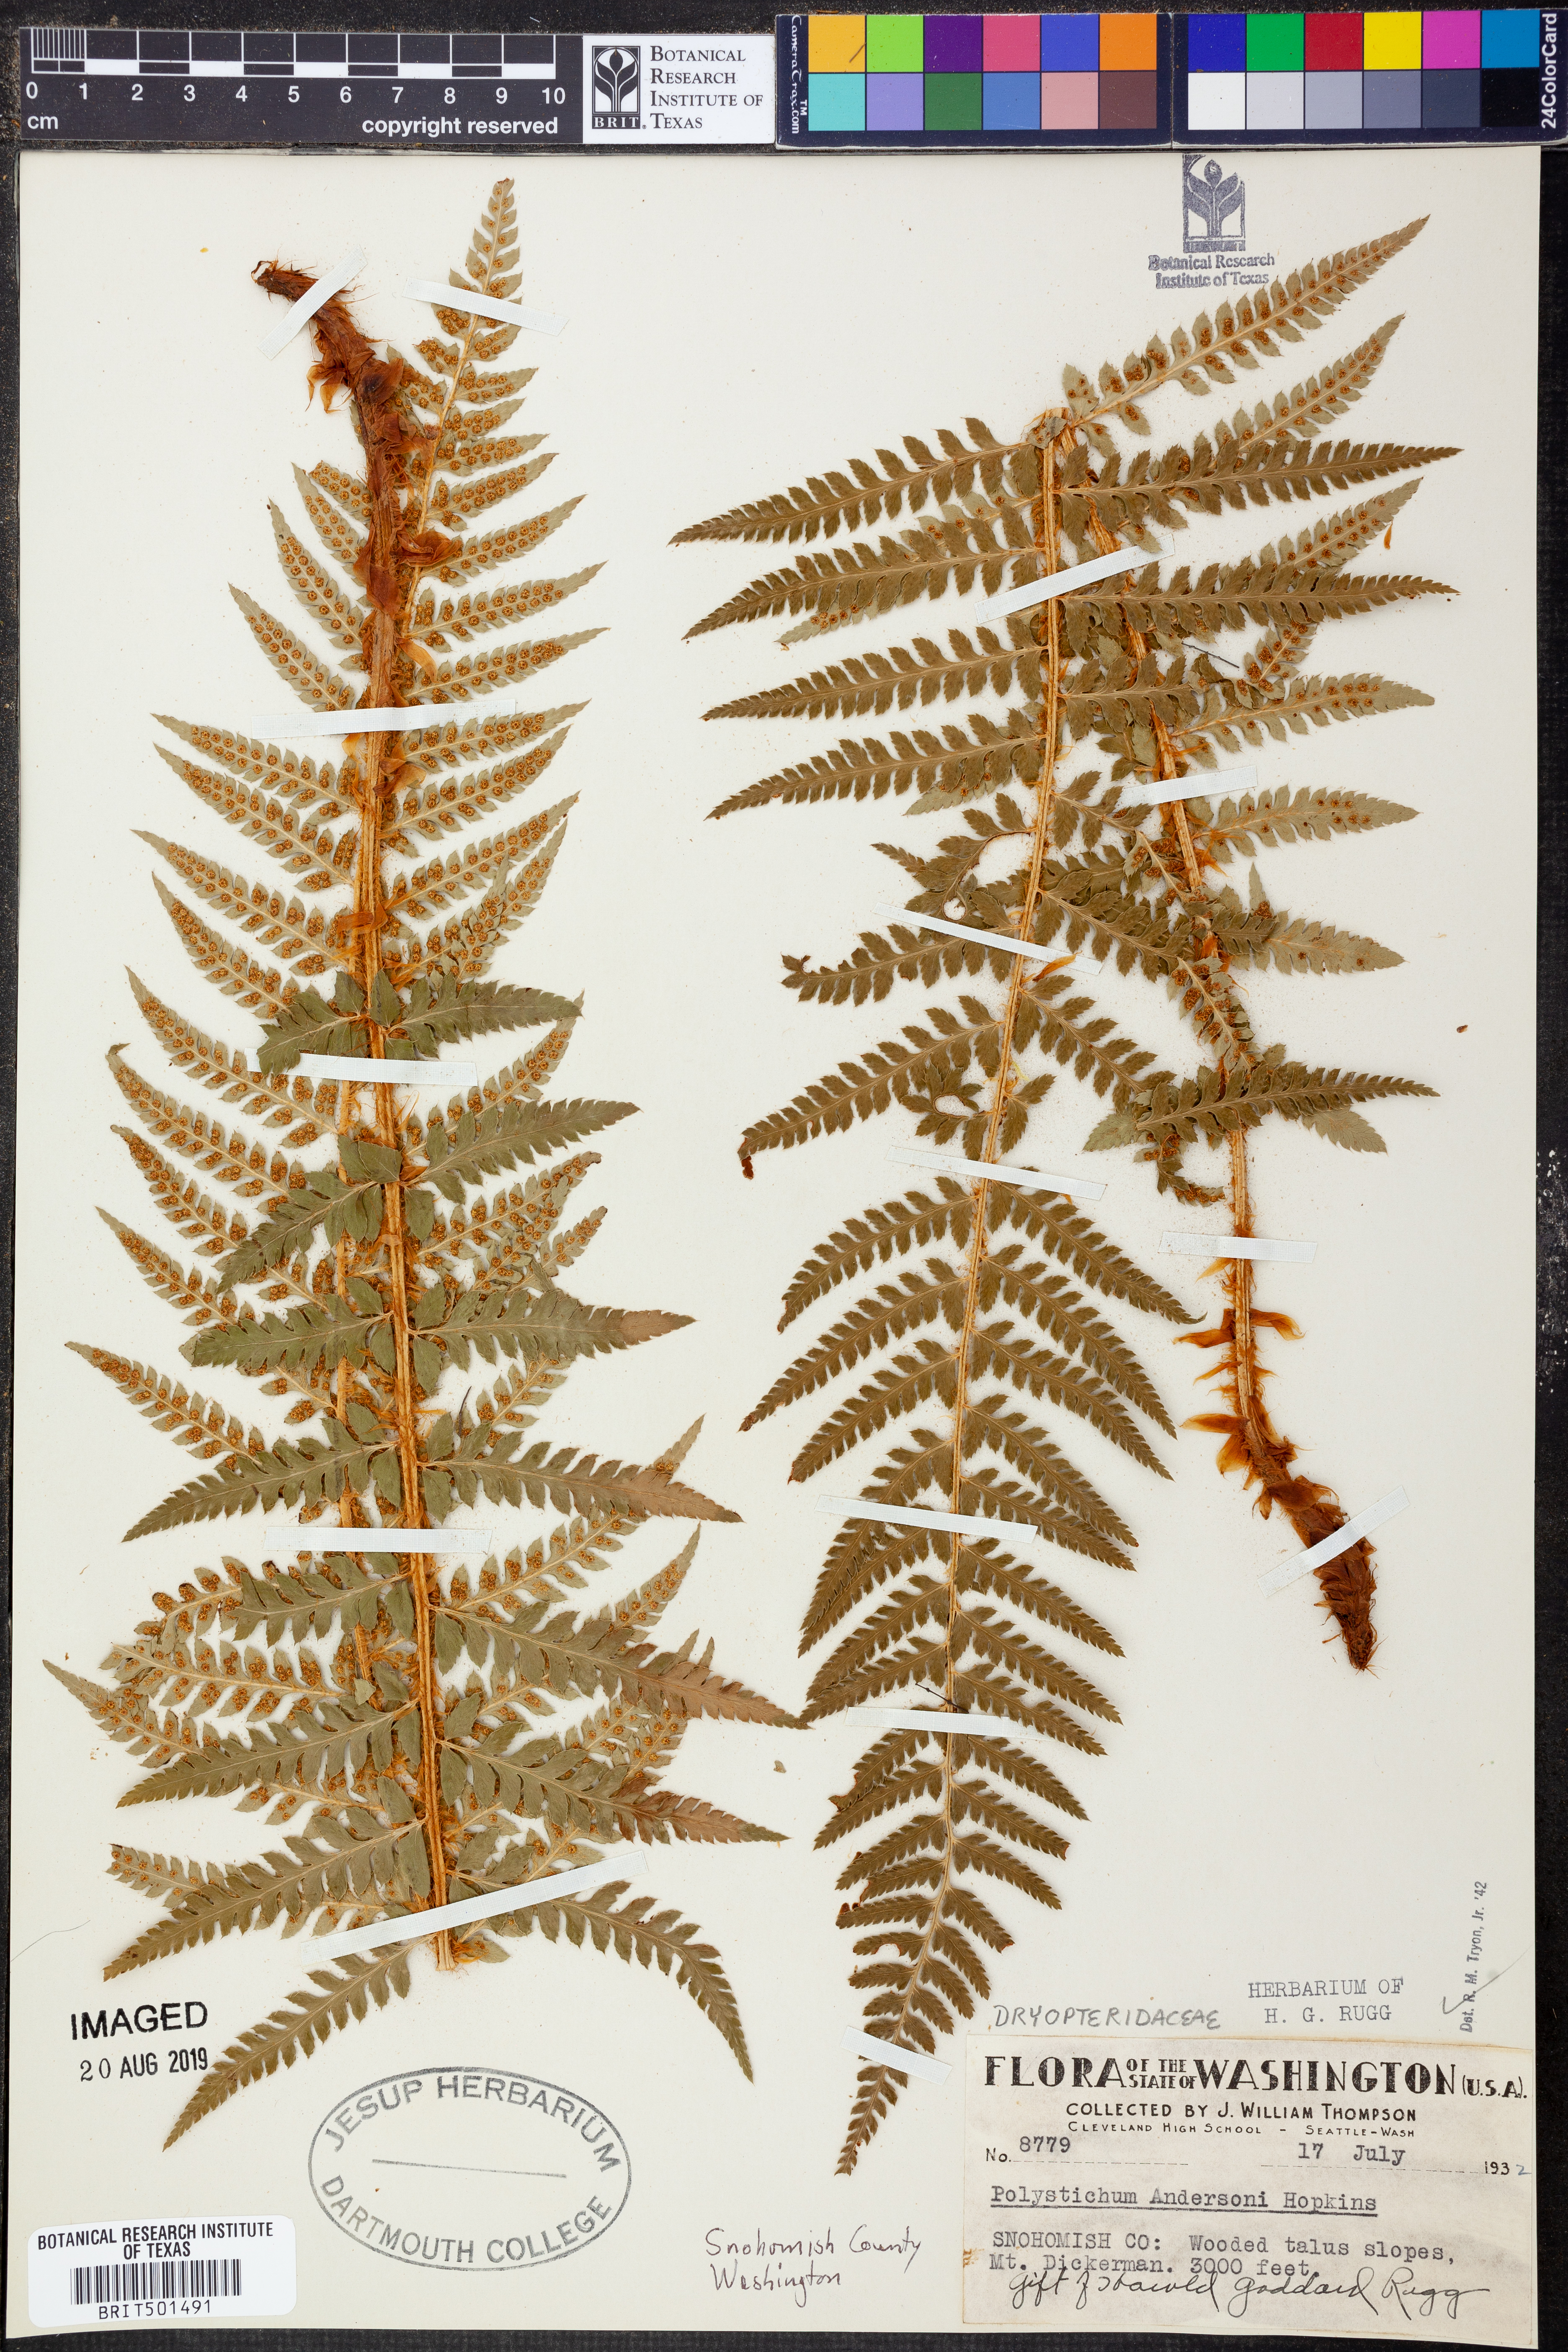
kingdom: Plantae
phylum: Tracheophyta
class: Polypodiopsida
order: Polypodiales
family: Dryopteridaceae
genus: Polystichum
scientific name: Polystichum andersonii
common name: Anderson's holly fern
